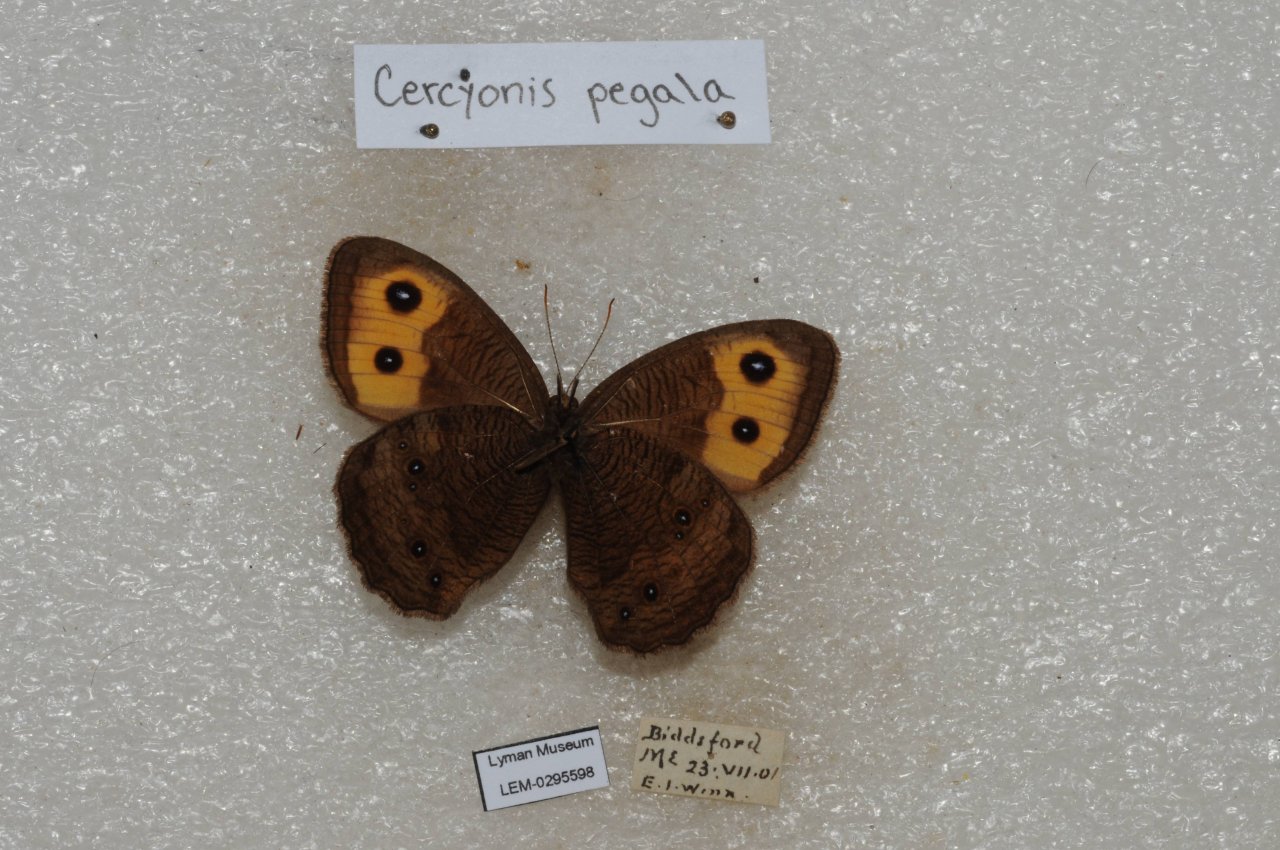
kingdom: Animalia
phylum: Arthropoda
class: Insecta
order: Lepidoptera
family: Nymphalidae
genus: Cercyonis
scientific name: Cercyonis pegala
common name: Common Wood-Nymph
